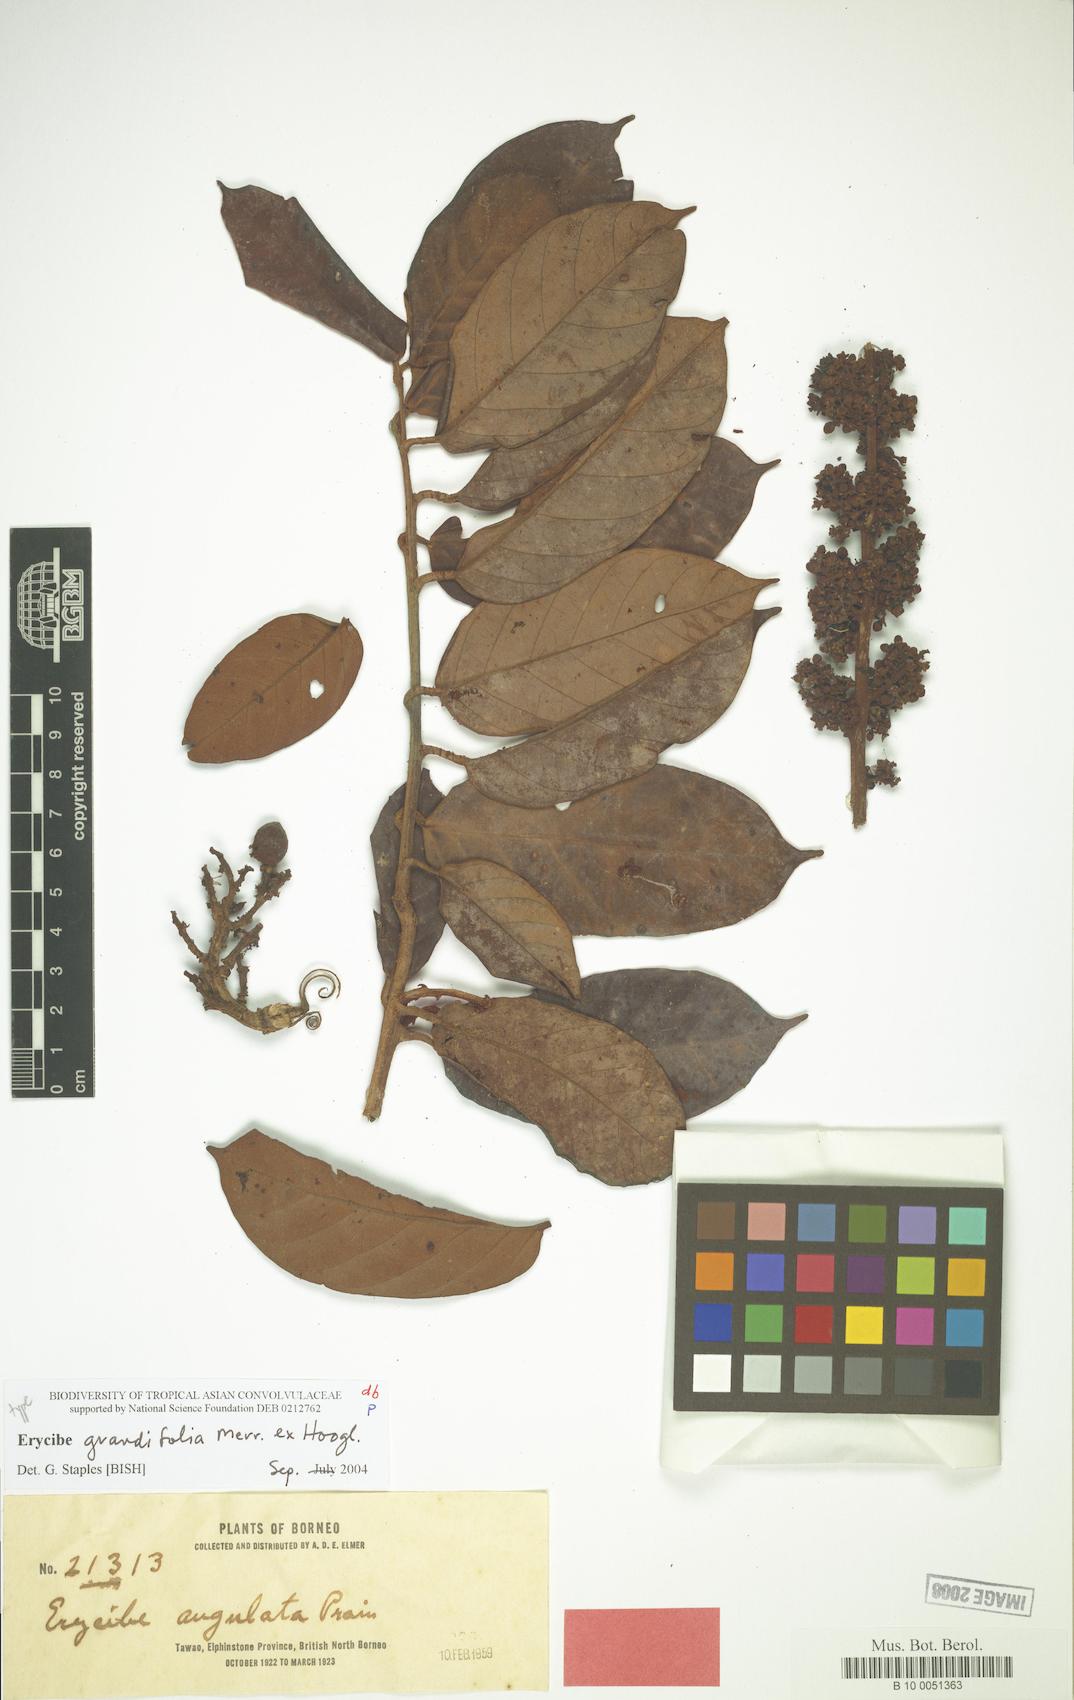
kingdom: Plantae
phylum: Tracheophyta
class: Magnoliopsida
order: Solanales
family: Convolvulaceae
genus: Erycibe
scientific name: Erycibe grandifolia
